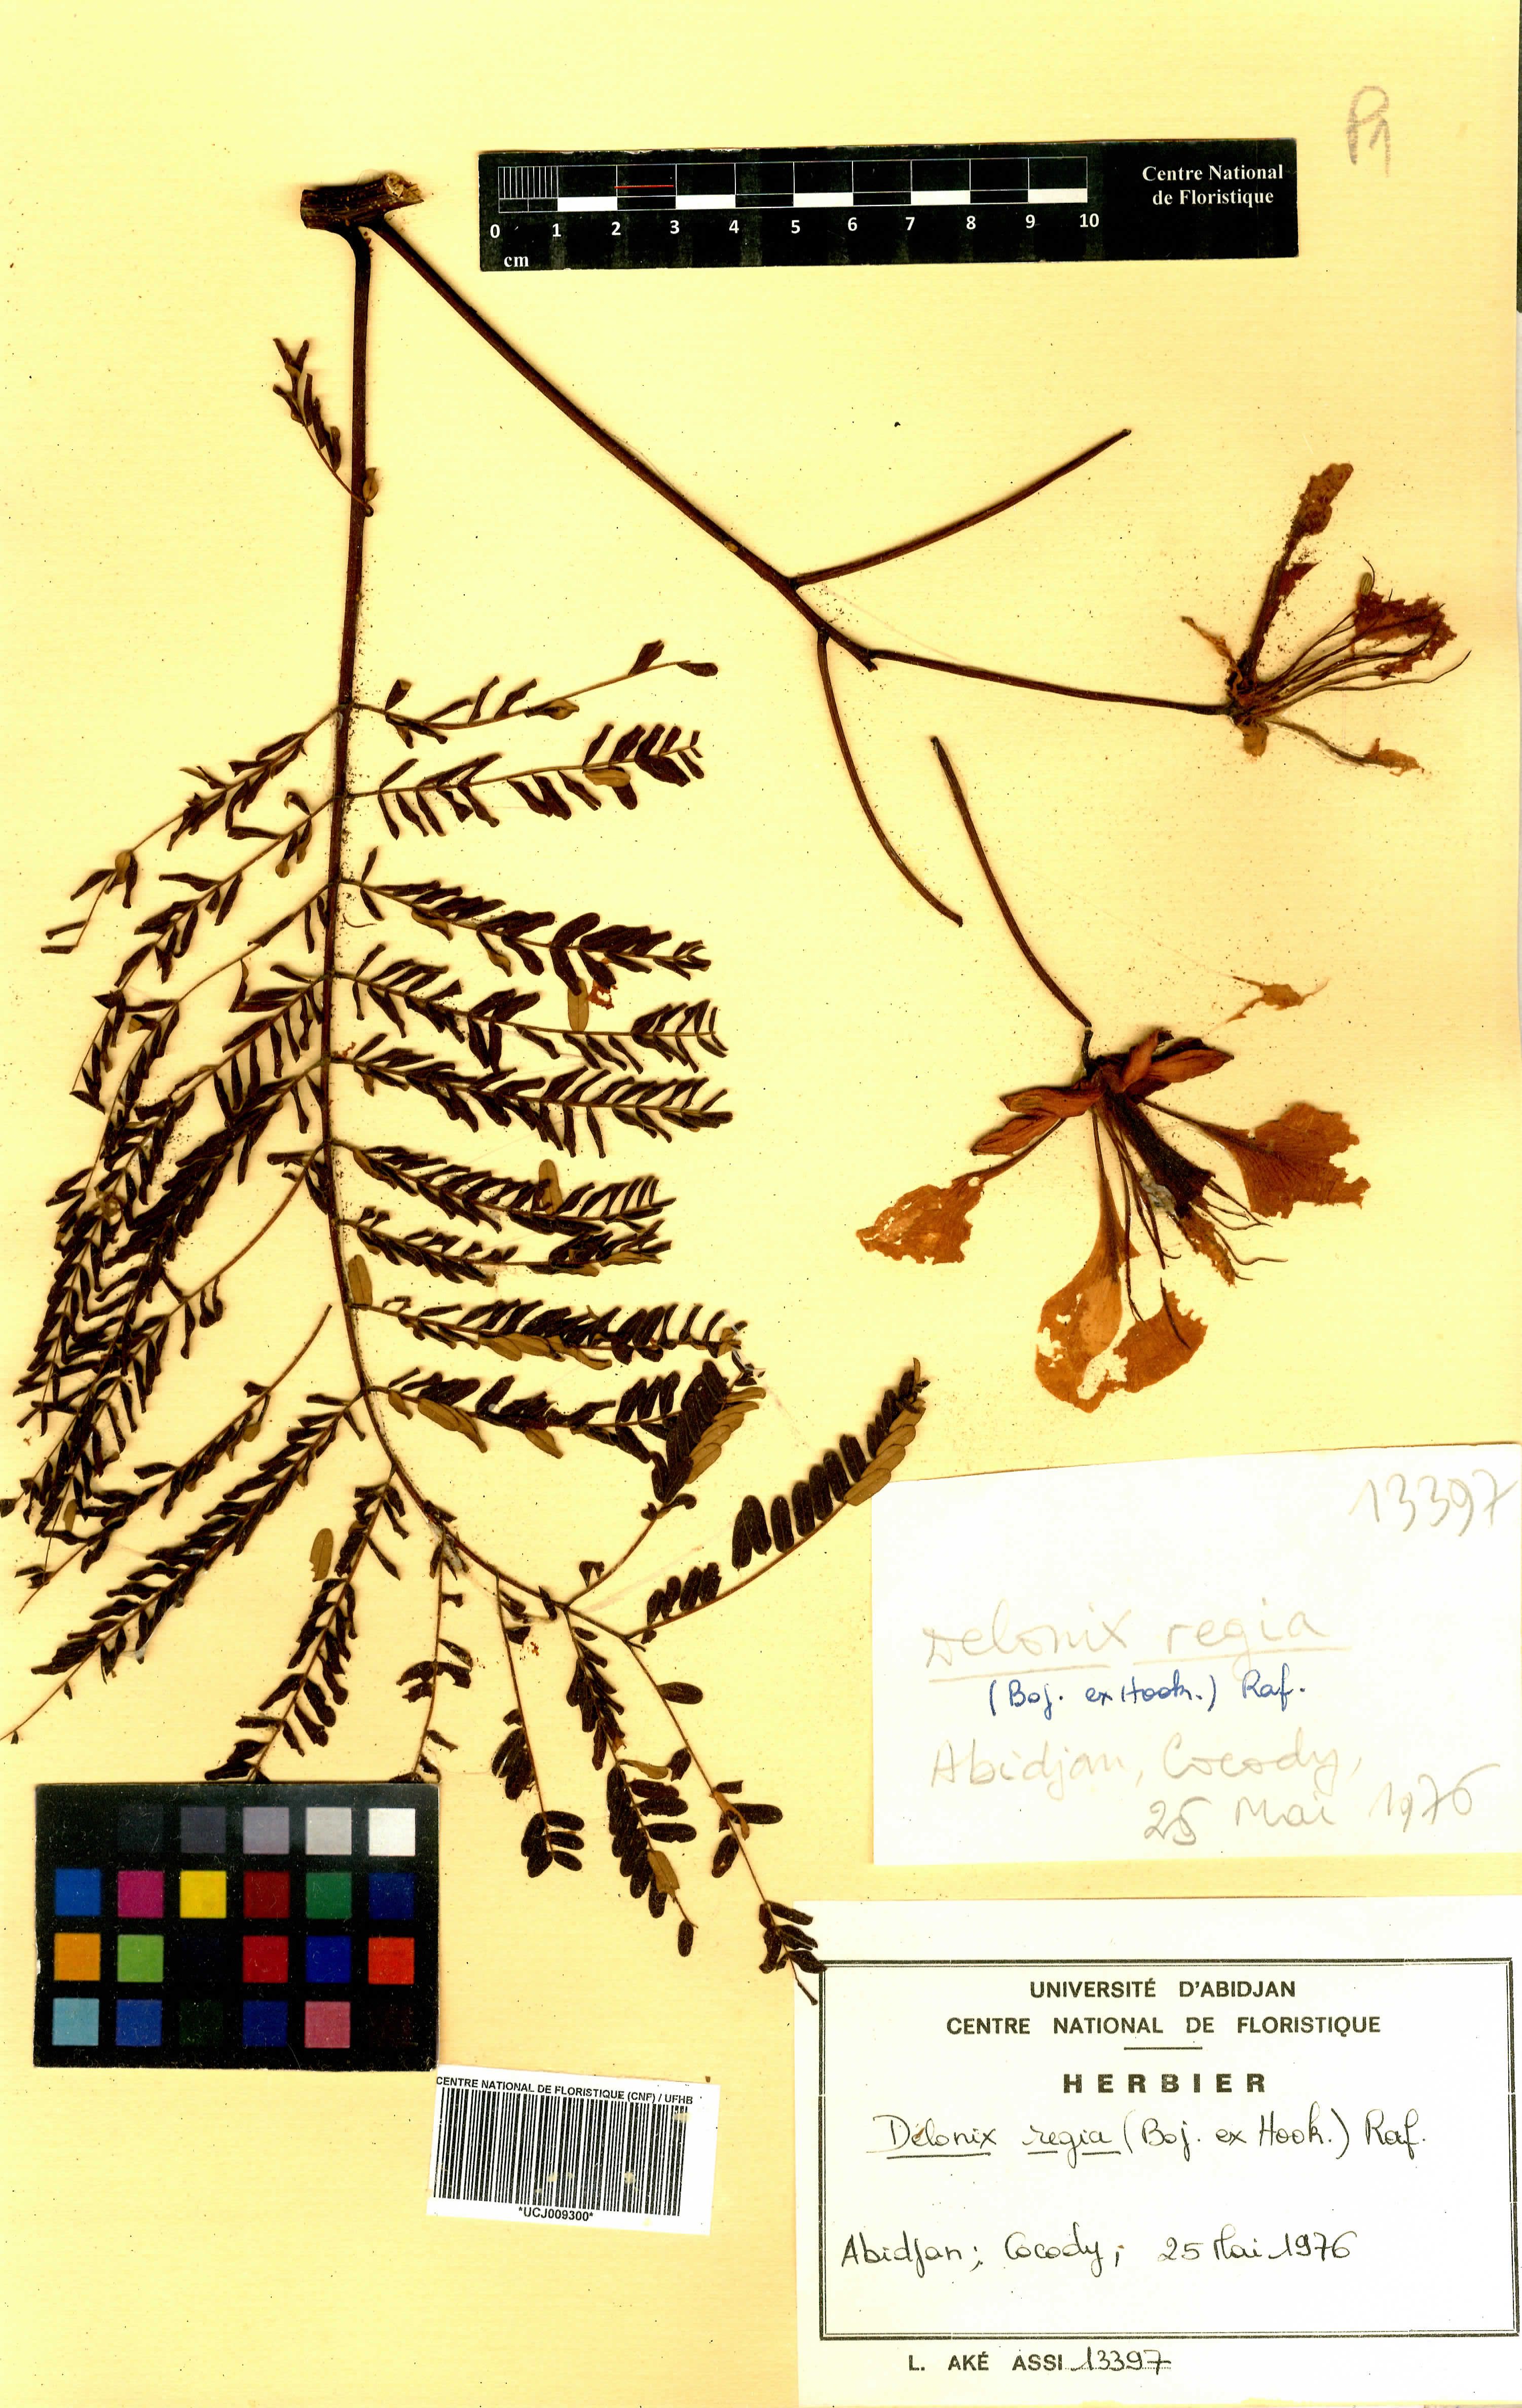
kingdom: Plantae
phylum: Tracheophyta
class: Magnoliopsida
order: Fabales
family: Fabaceae
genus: Delonix
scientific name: Delonix regia
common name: Royal poinciana
